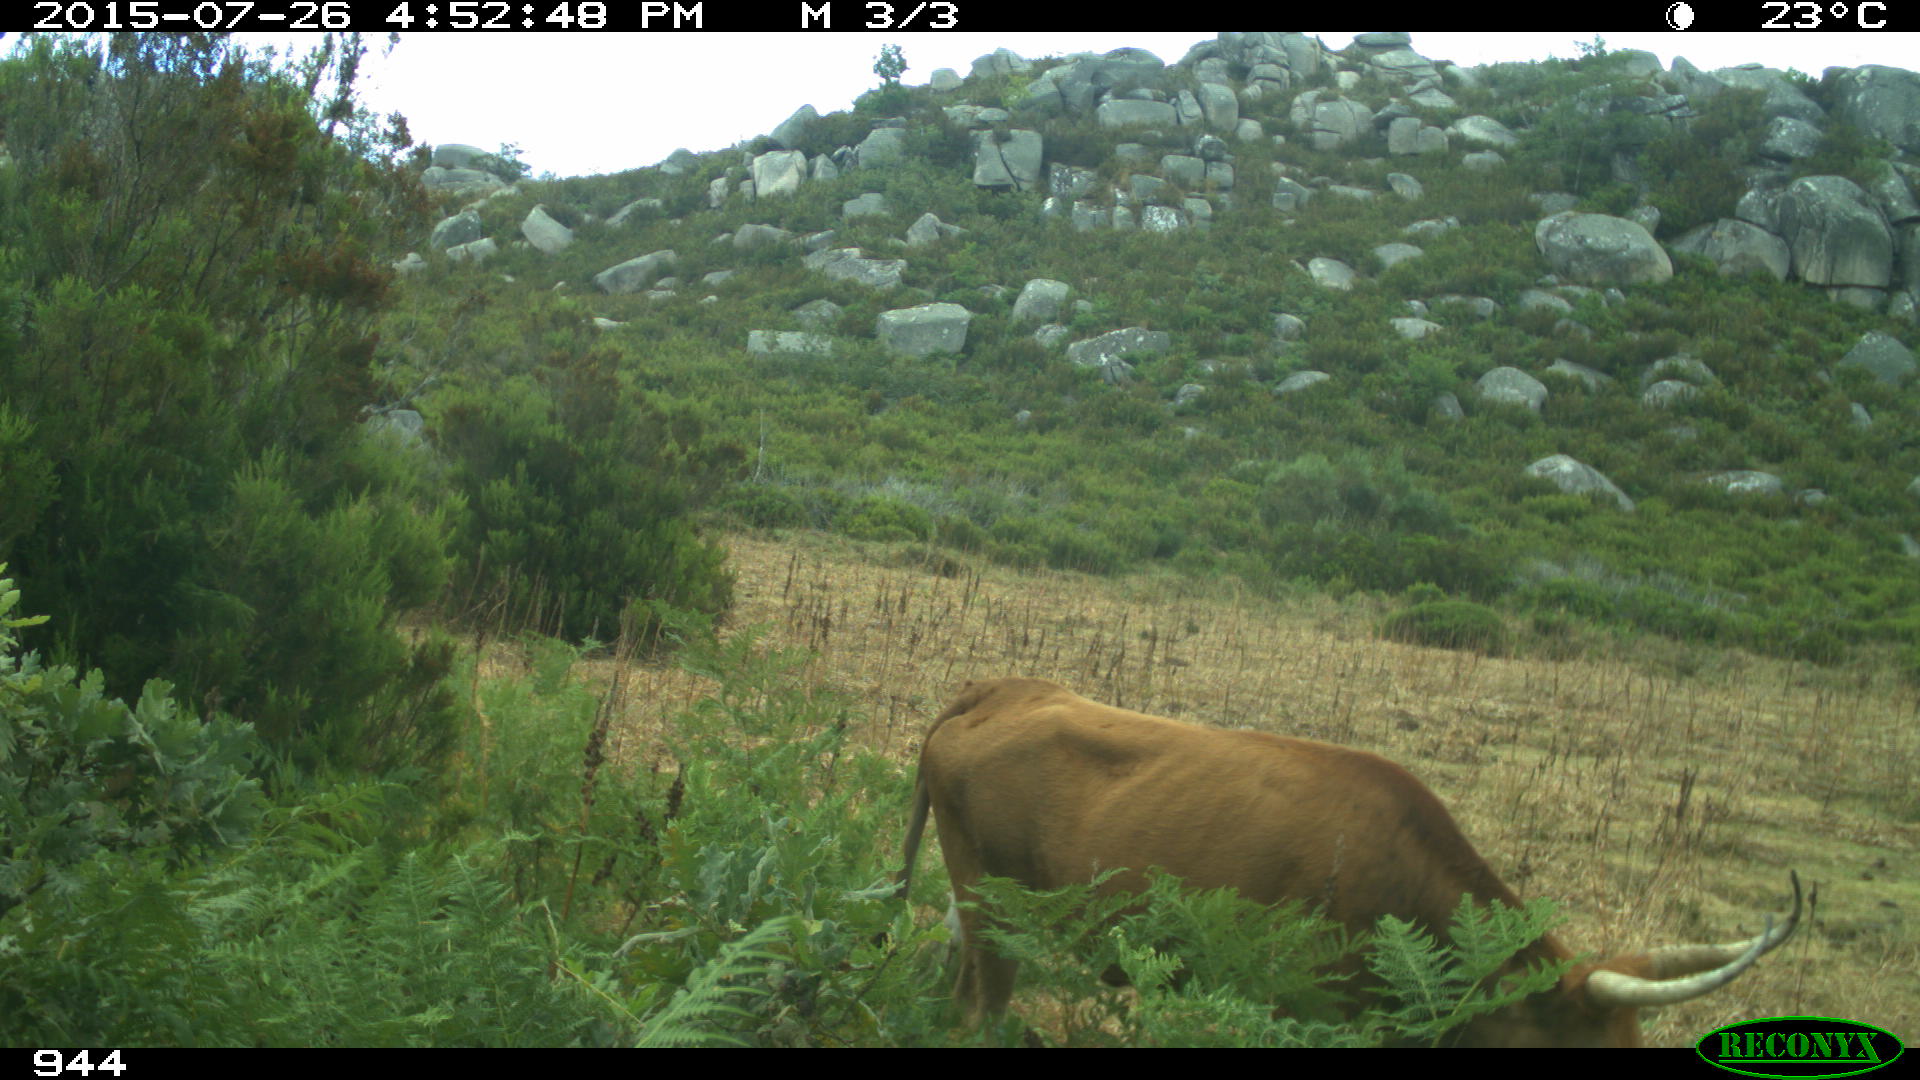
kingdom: Animalia
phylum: Chordata
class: Mammalia
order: Artiodactyla
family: Bovidae
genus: Bos
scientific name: Bos taurus
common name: Domesticated cattle
